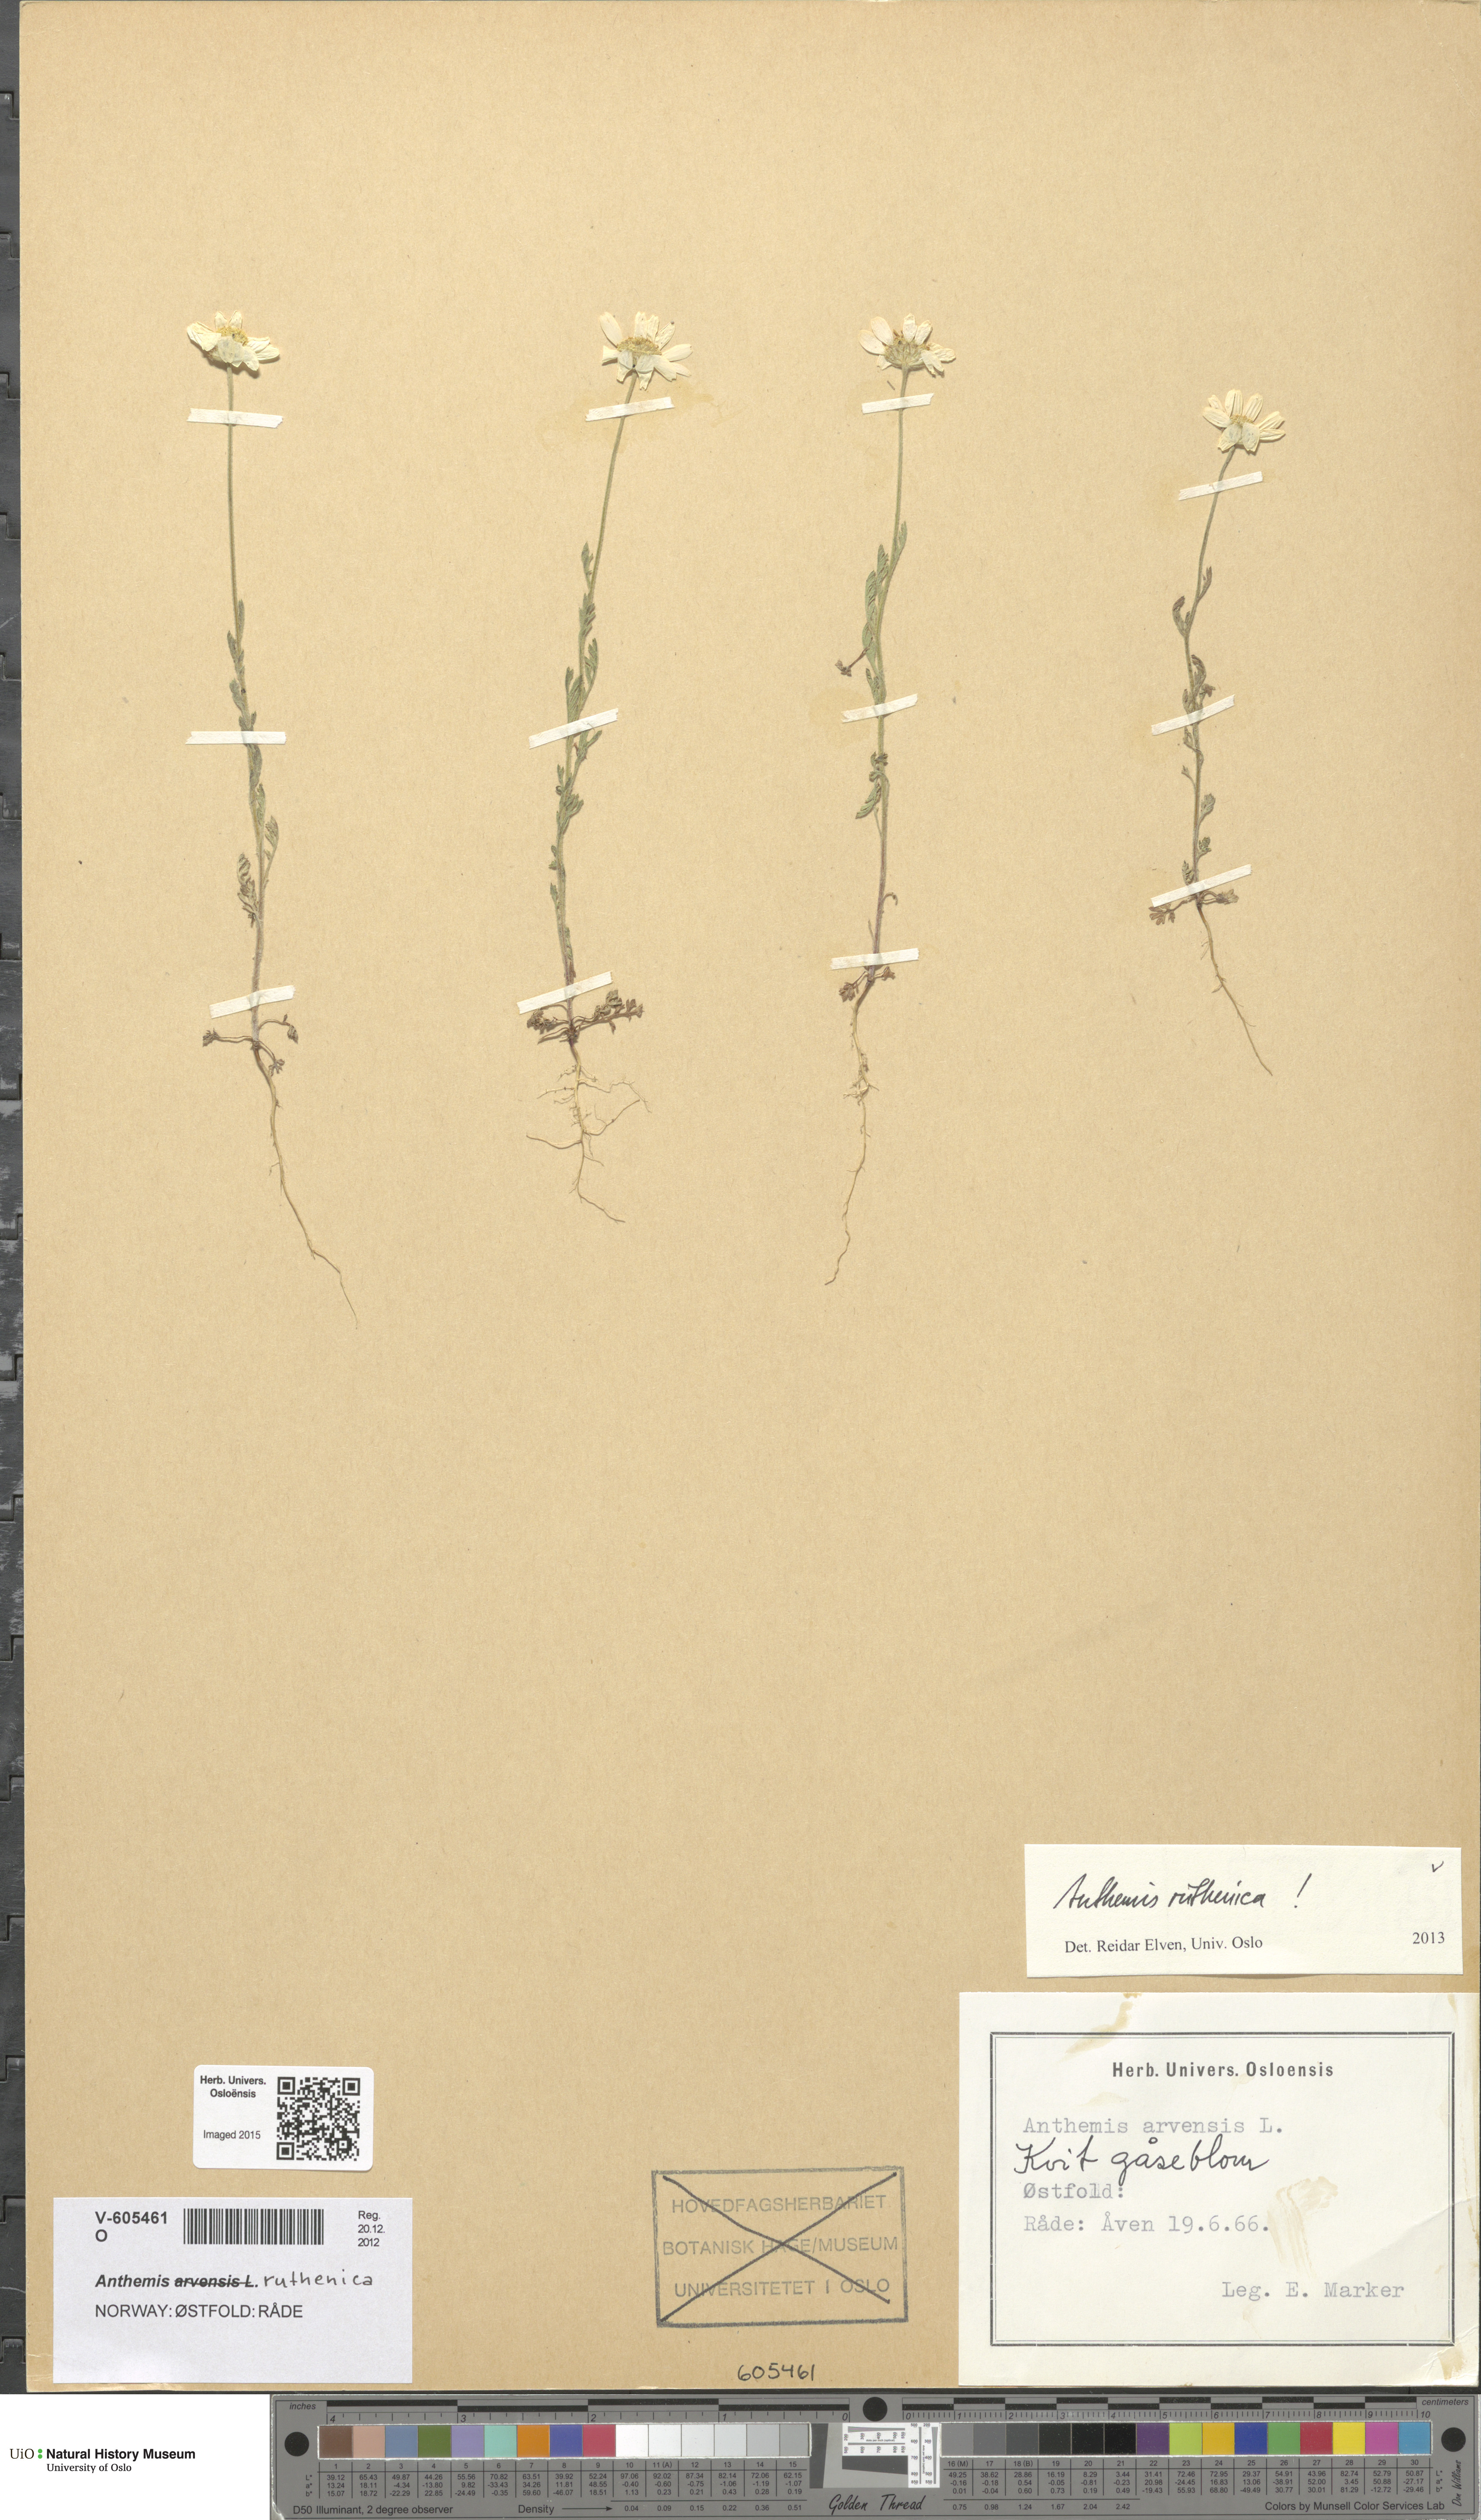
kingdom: Plantae
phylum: Tracheophyta
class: Magnoliopsida
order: Asterales
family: Asteraceae
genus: Anthemis
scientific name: Anthemis ruthenica
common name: Eastern chamomile
